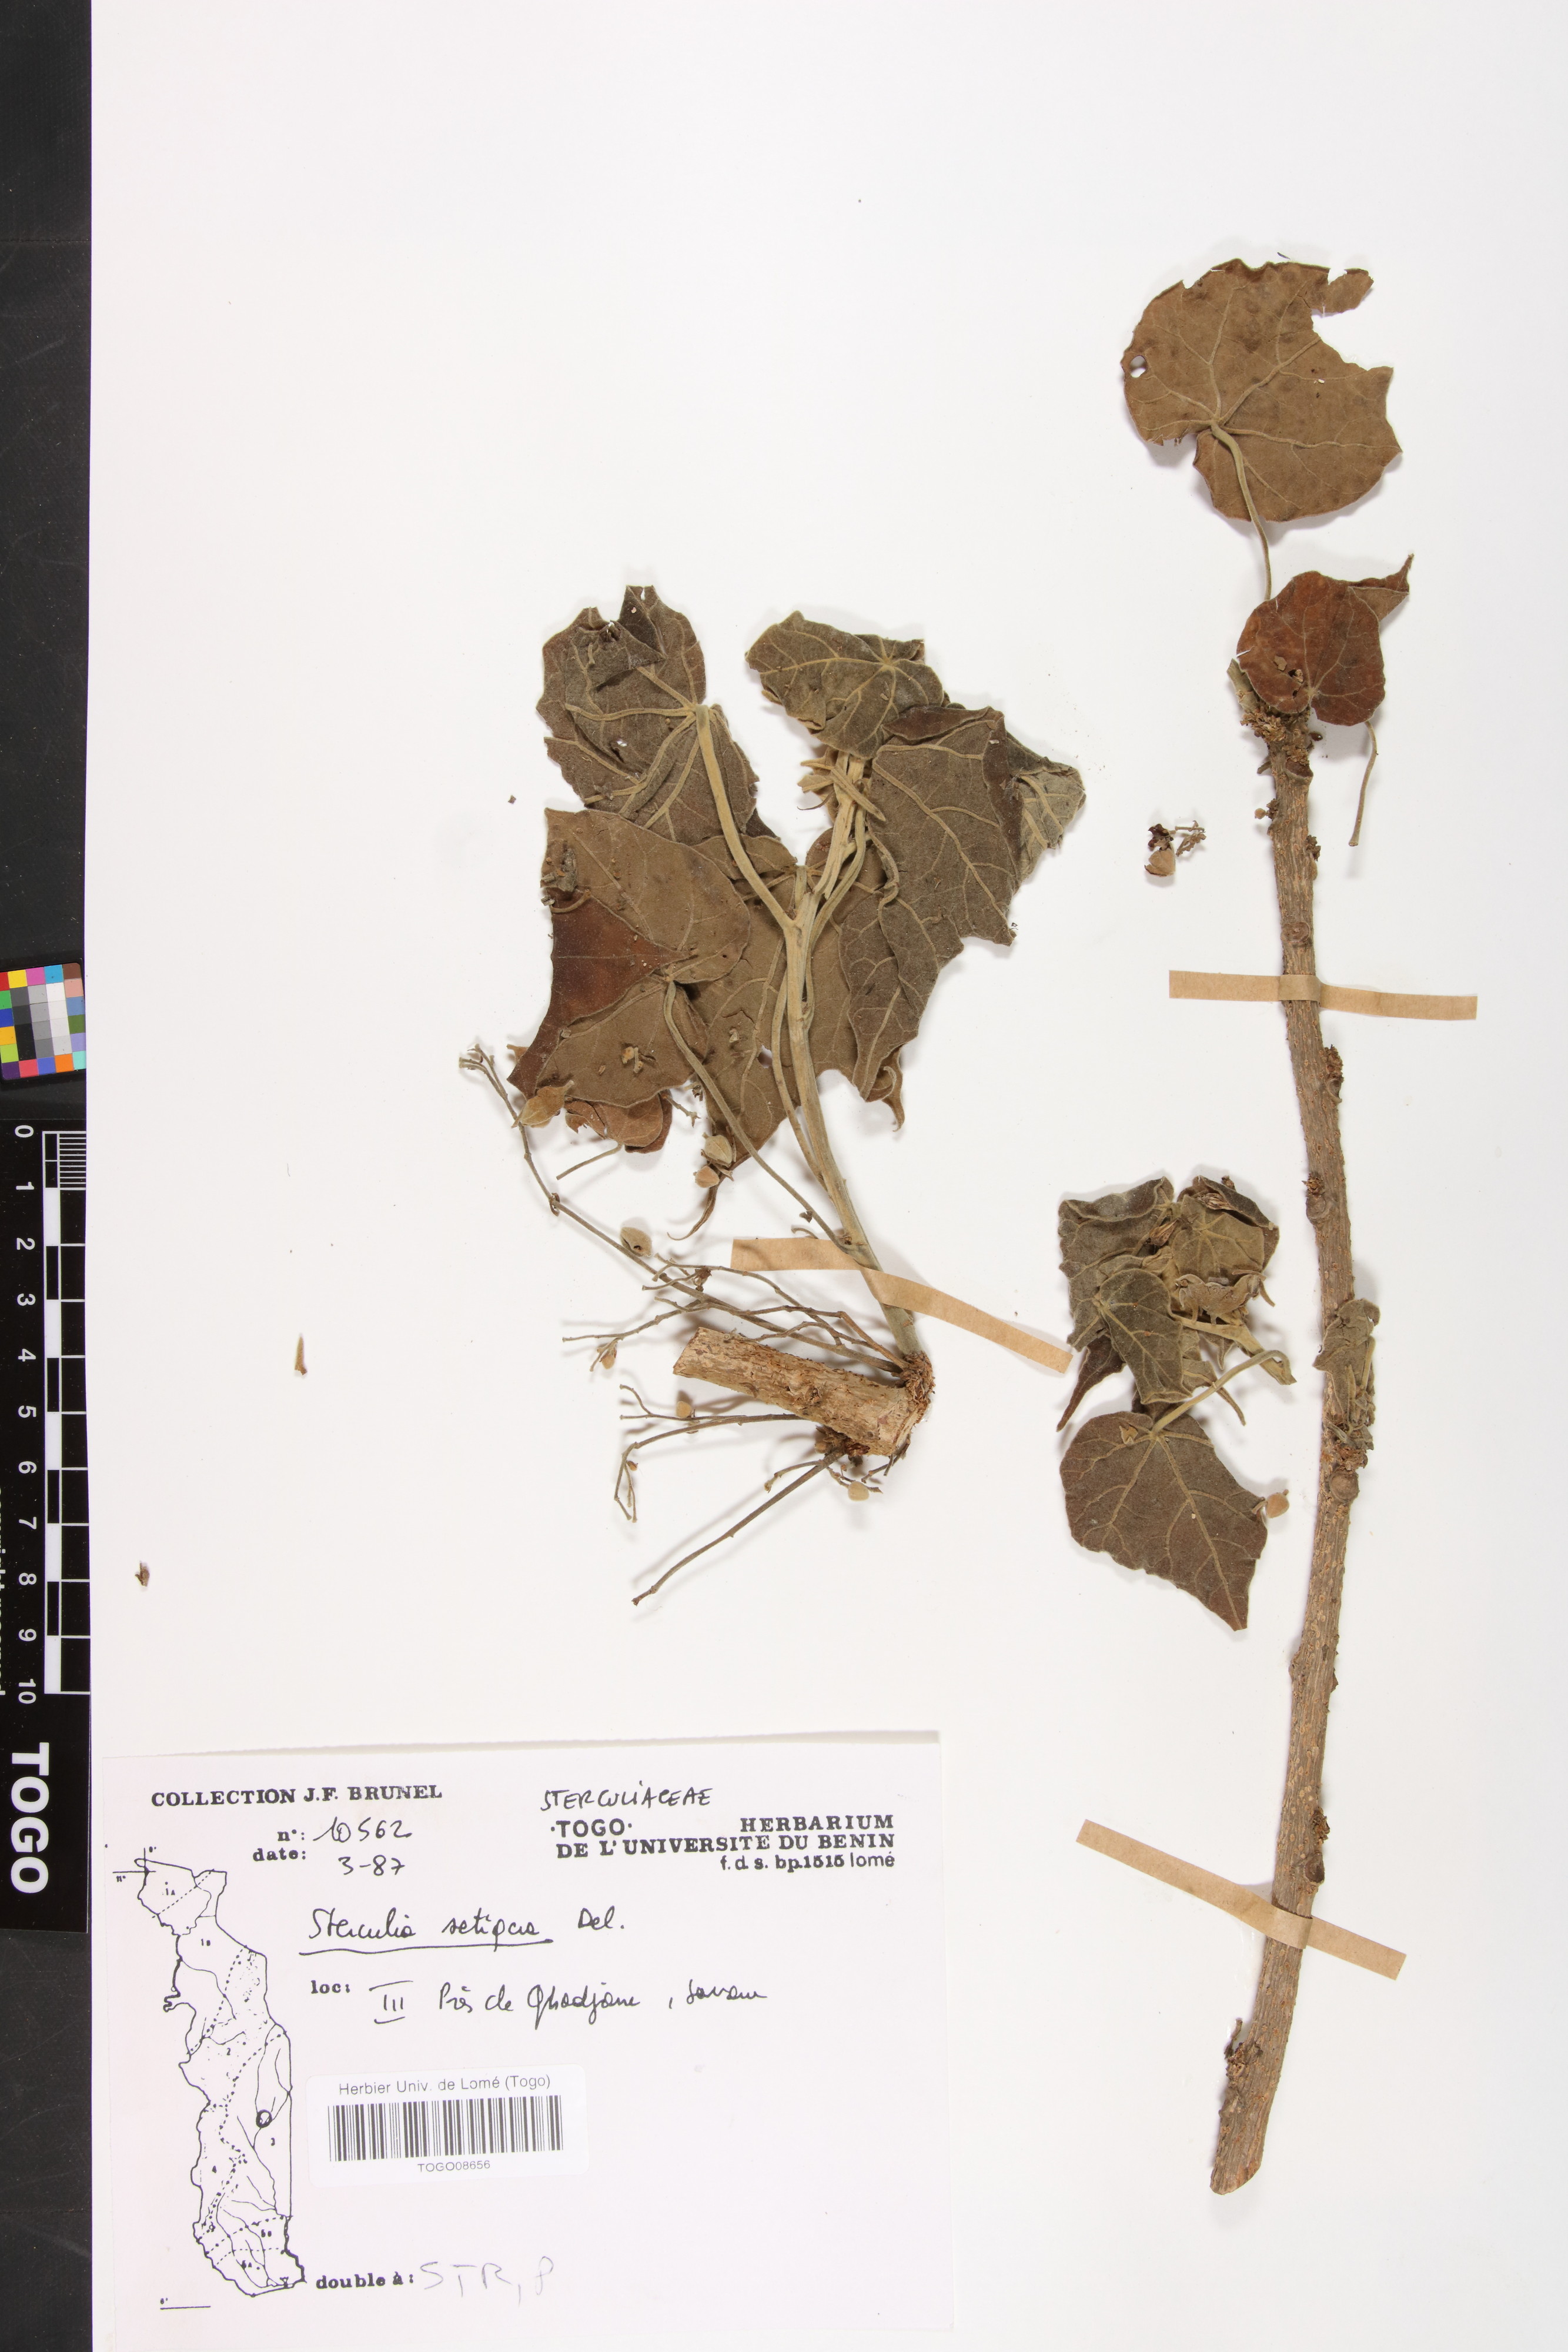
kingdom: Plantae
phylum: Tracheophyta
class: Magnoliopsida
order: Malvales
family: Malvaceae
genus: Sterculia
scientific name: Sterculia setigera
